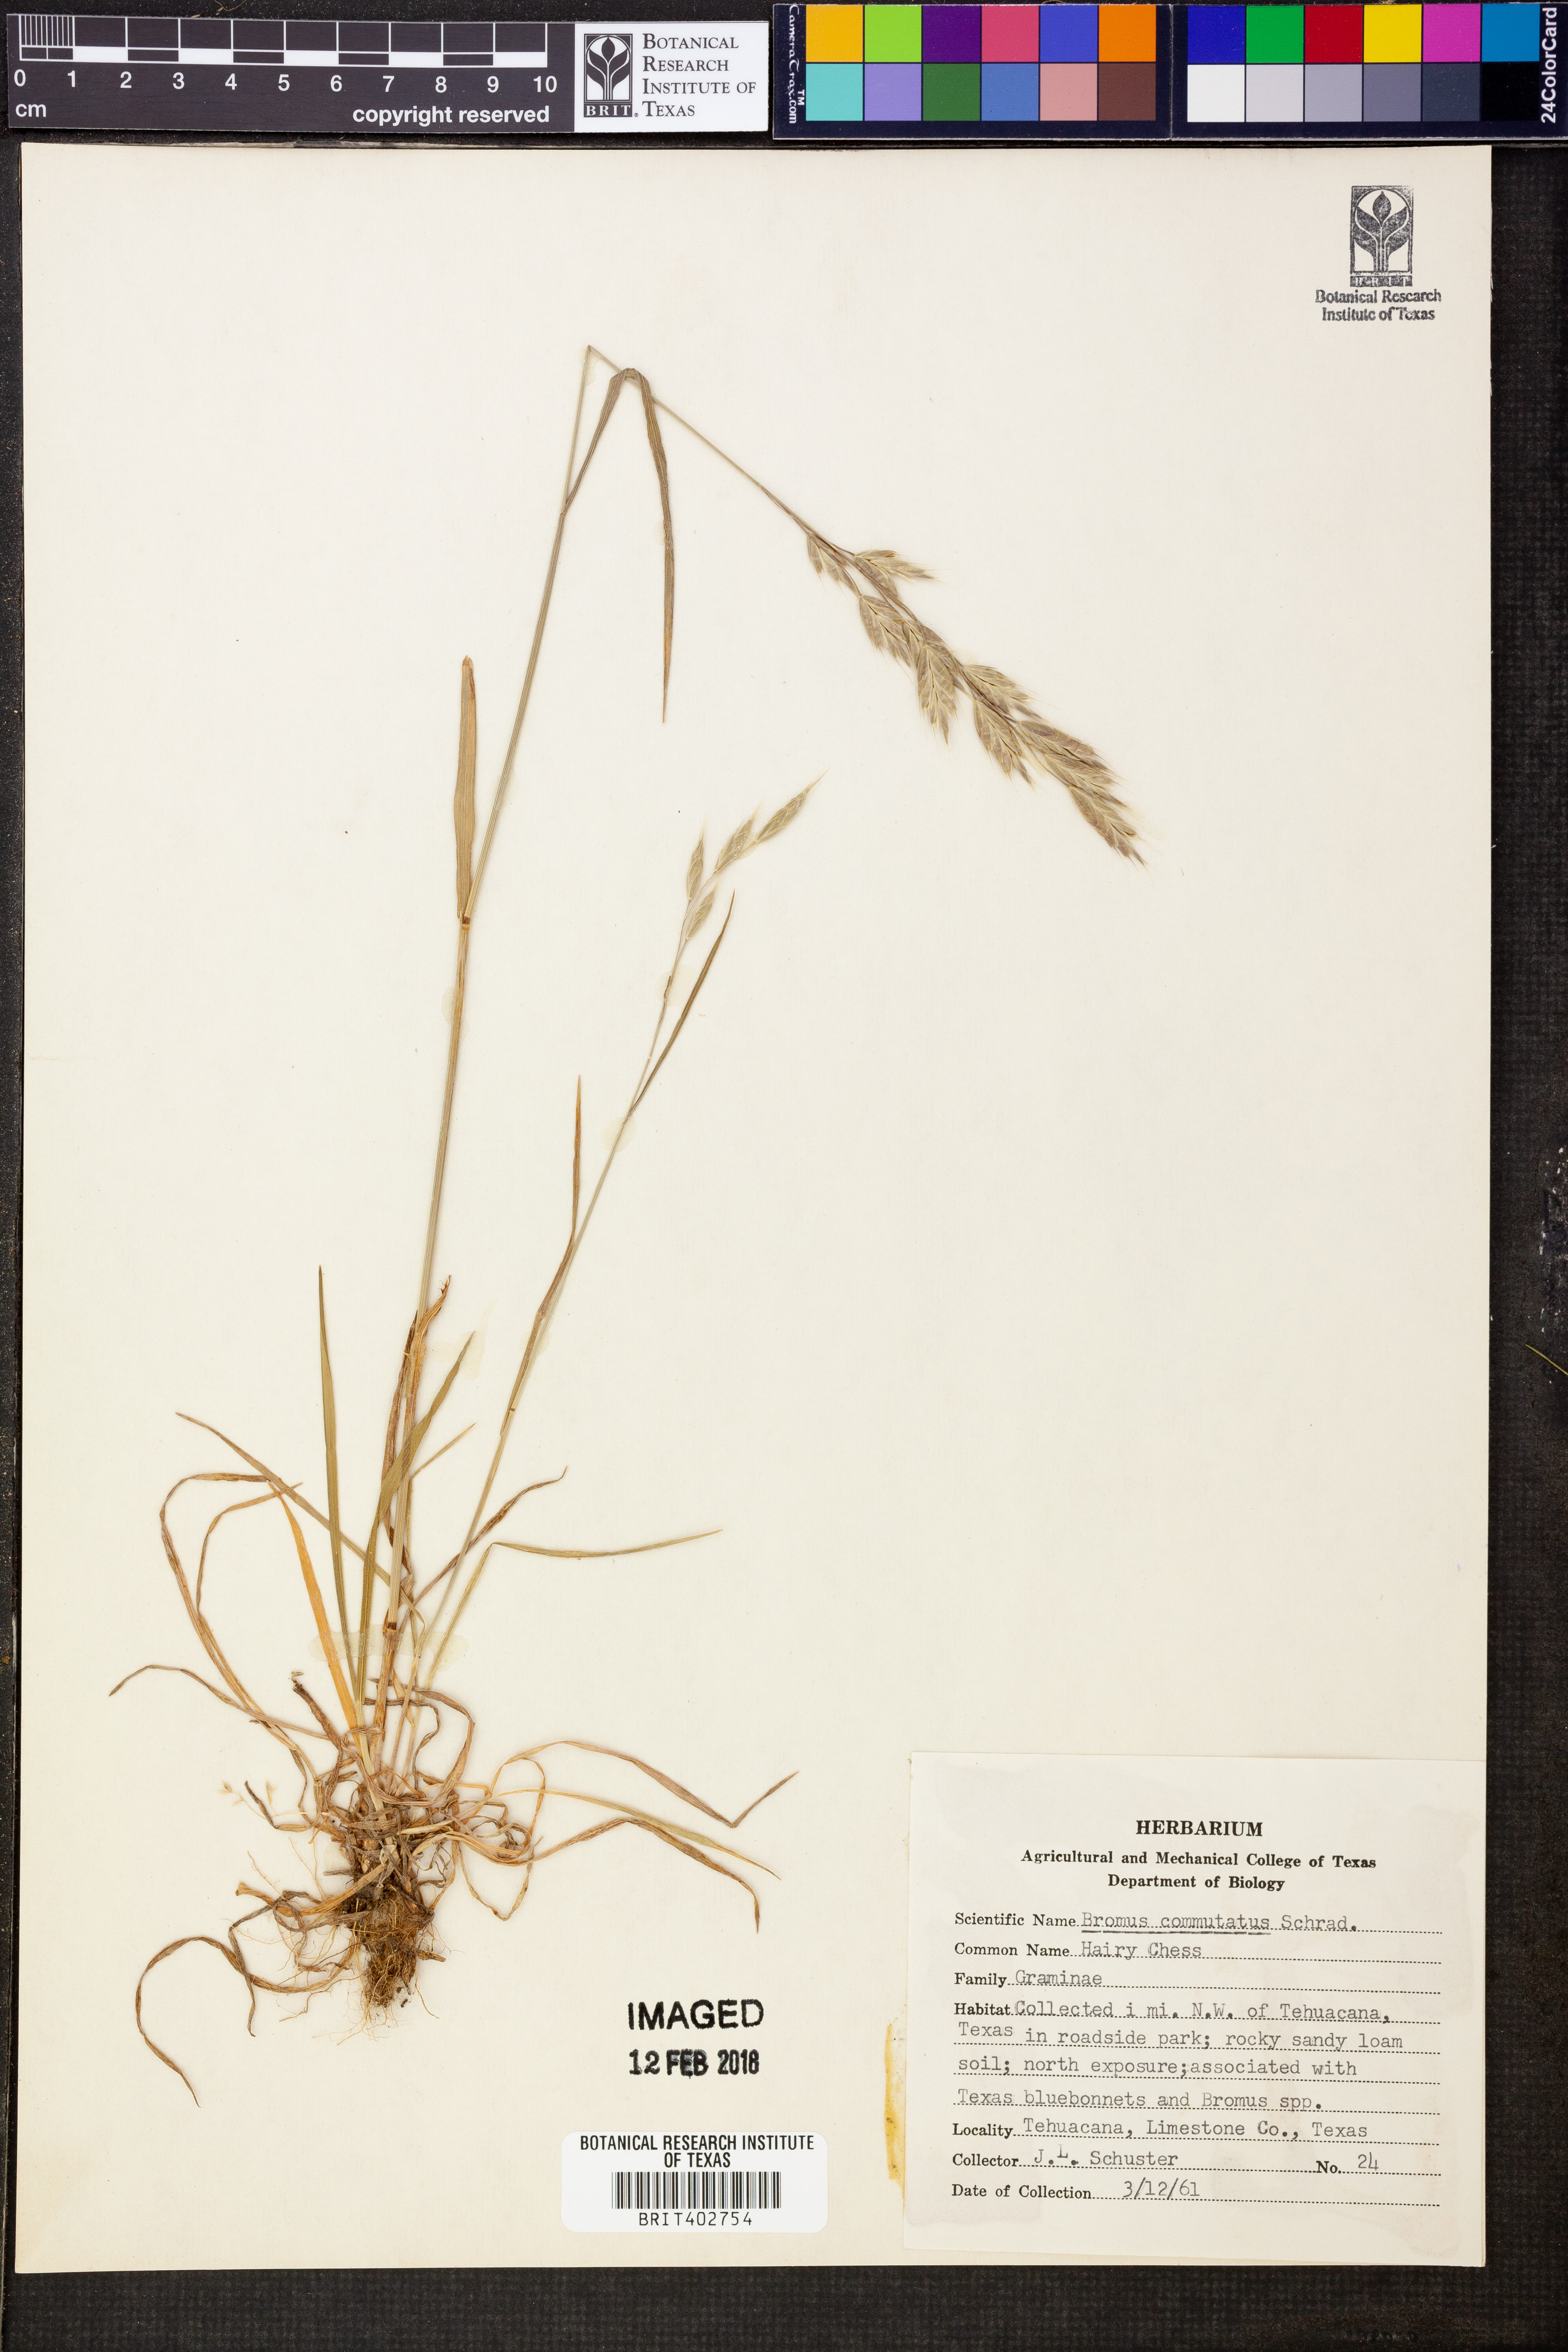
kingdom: Plantae
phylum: Tracheophyta
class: Liliopsida
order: Poales
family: Poaceae
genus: Bromus
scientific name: Bromus commutatus
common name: Meadow brome
